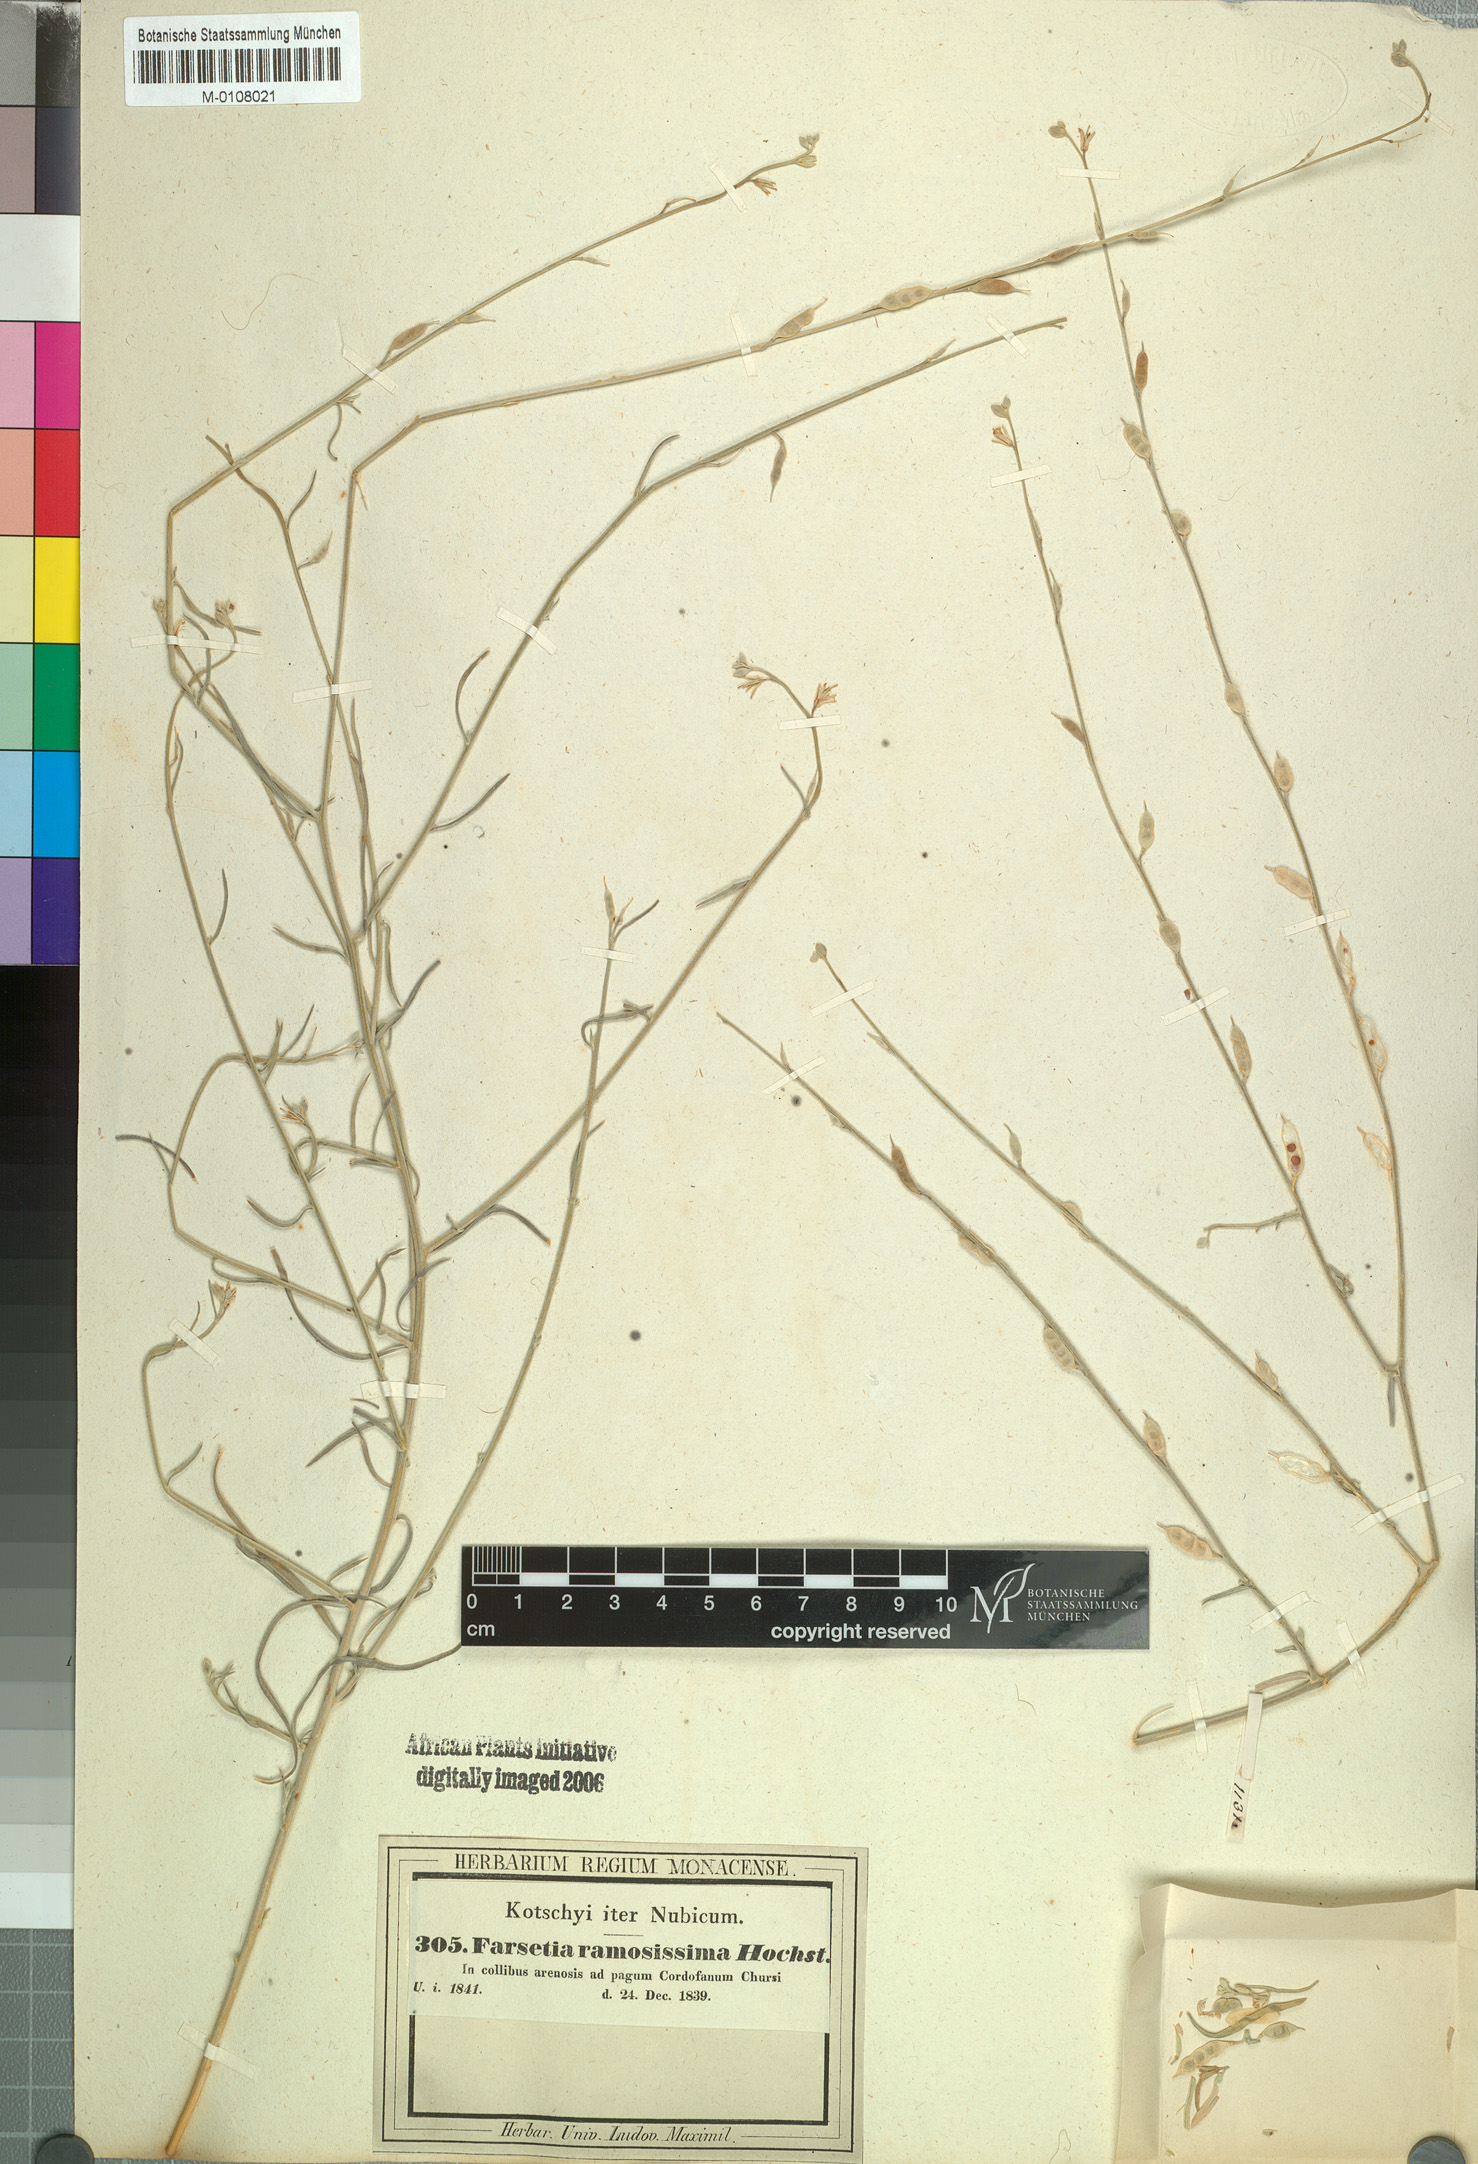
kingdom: Plantae
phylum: Tracheophyta
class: Magnoliopsida
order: Brassicales
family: Brassicaceae
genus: Farsetia
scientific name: Farsetia stylosa
